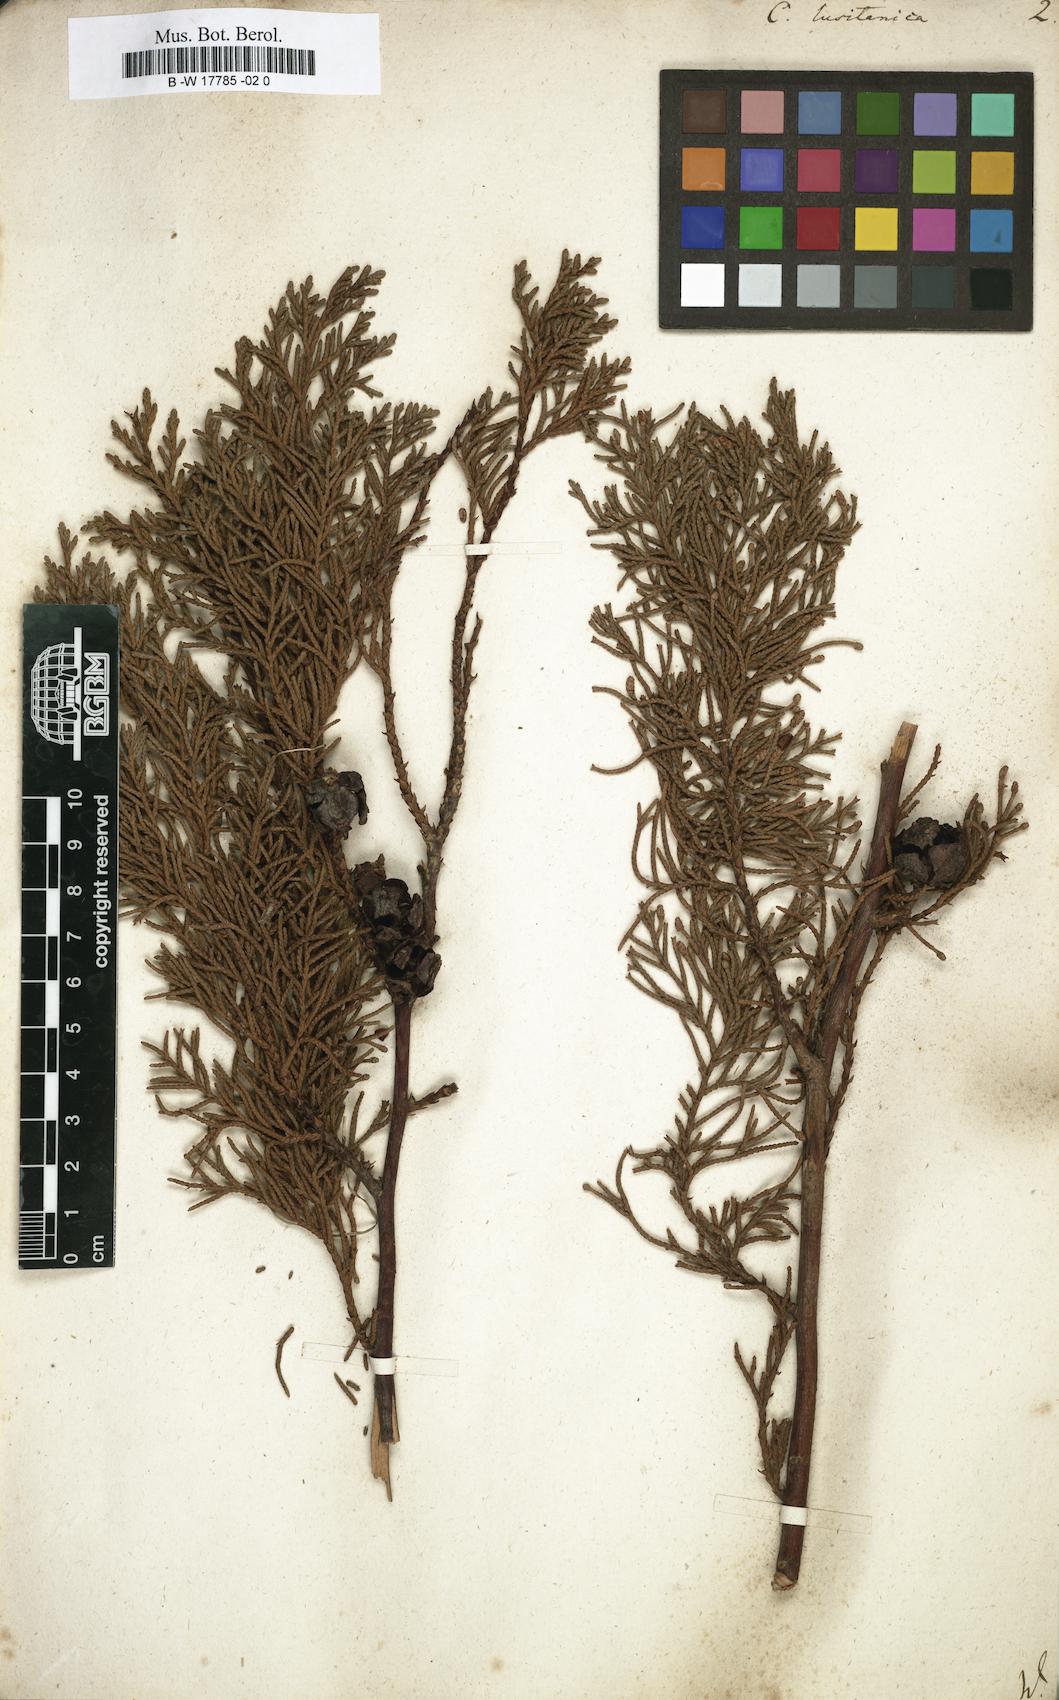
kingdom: Plantae
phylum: Tracheophyta
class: Pinopsida
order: Pinales
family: Cupressaceae
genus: Cupressus
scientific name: Cupressus lusitanica
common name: Mexican cypress
